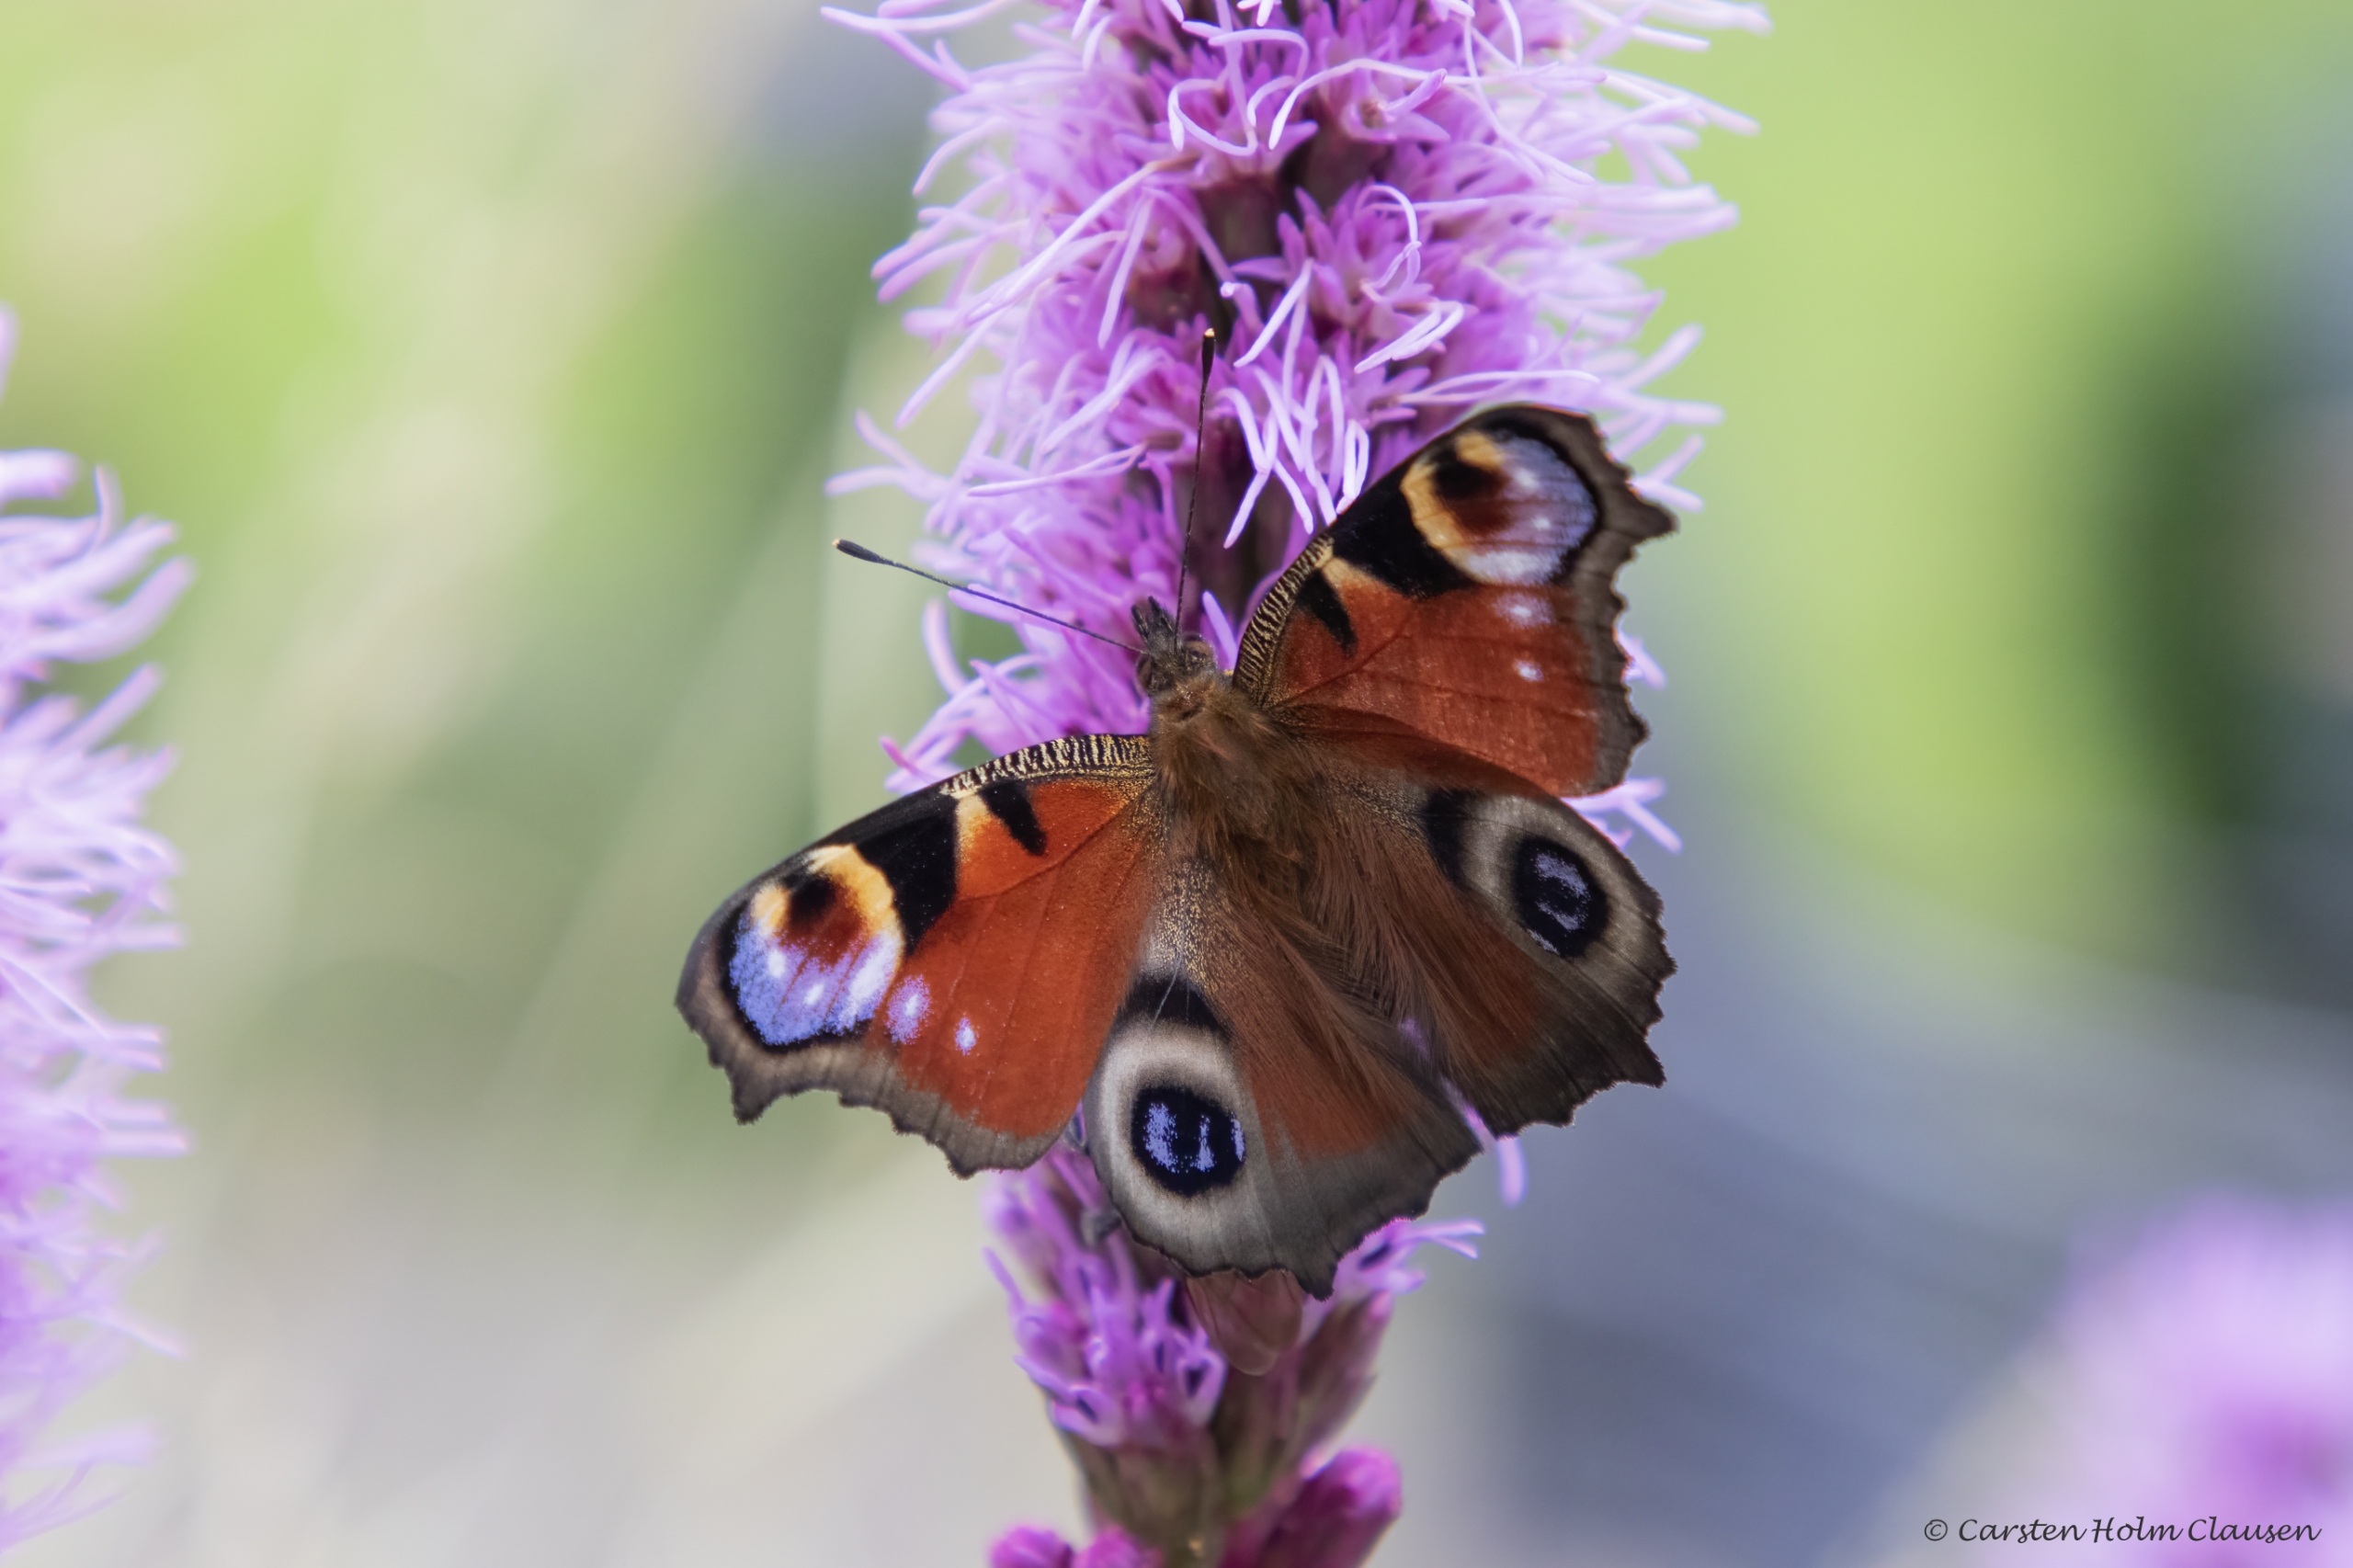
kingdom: Animalia
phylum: Arthropoda
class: Insecta
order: Lepidoptera
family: Nymphalidae
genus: Aglais
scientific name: Aglais io
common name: Dagpåfugleøje
